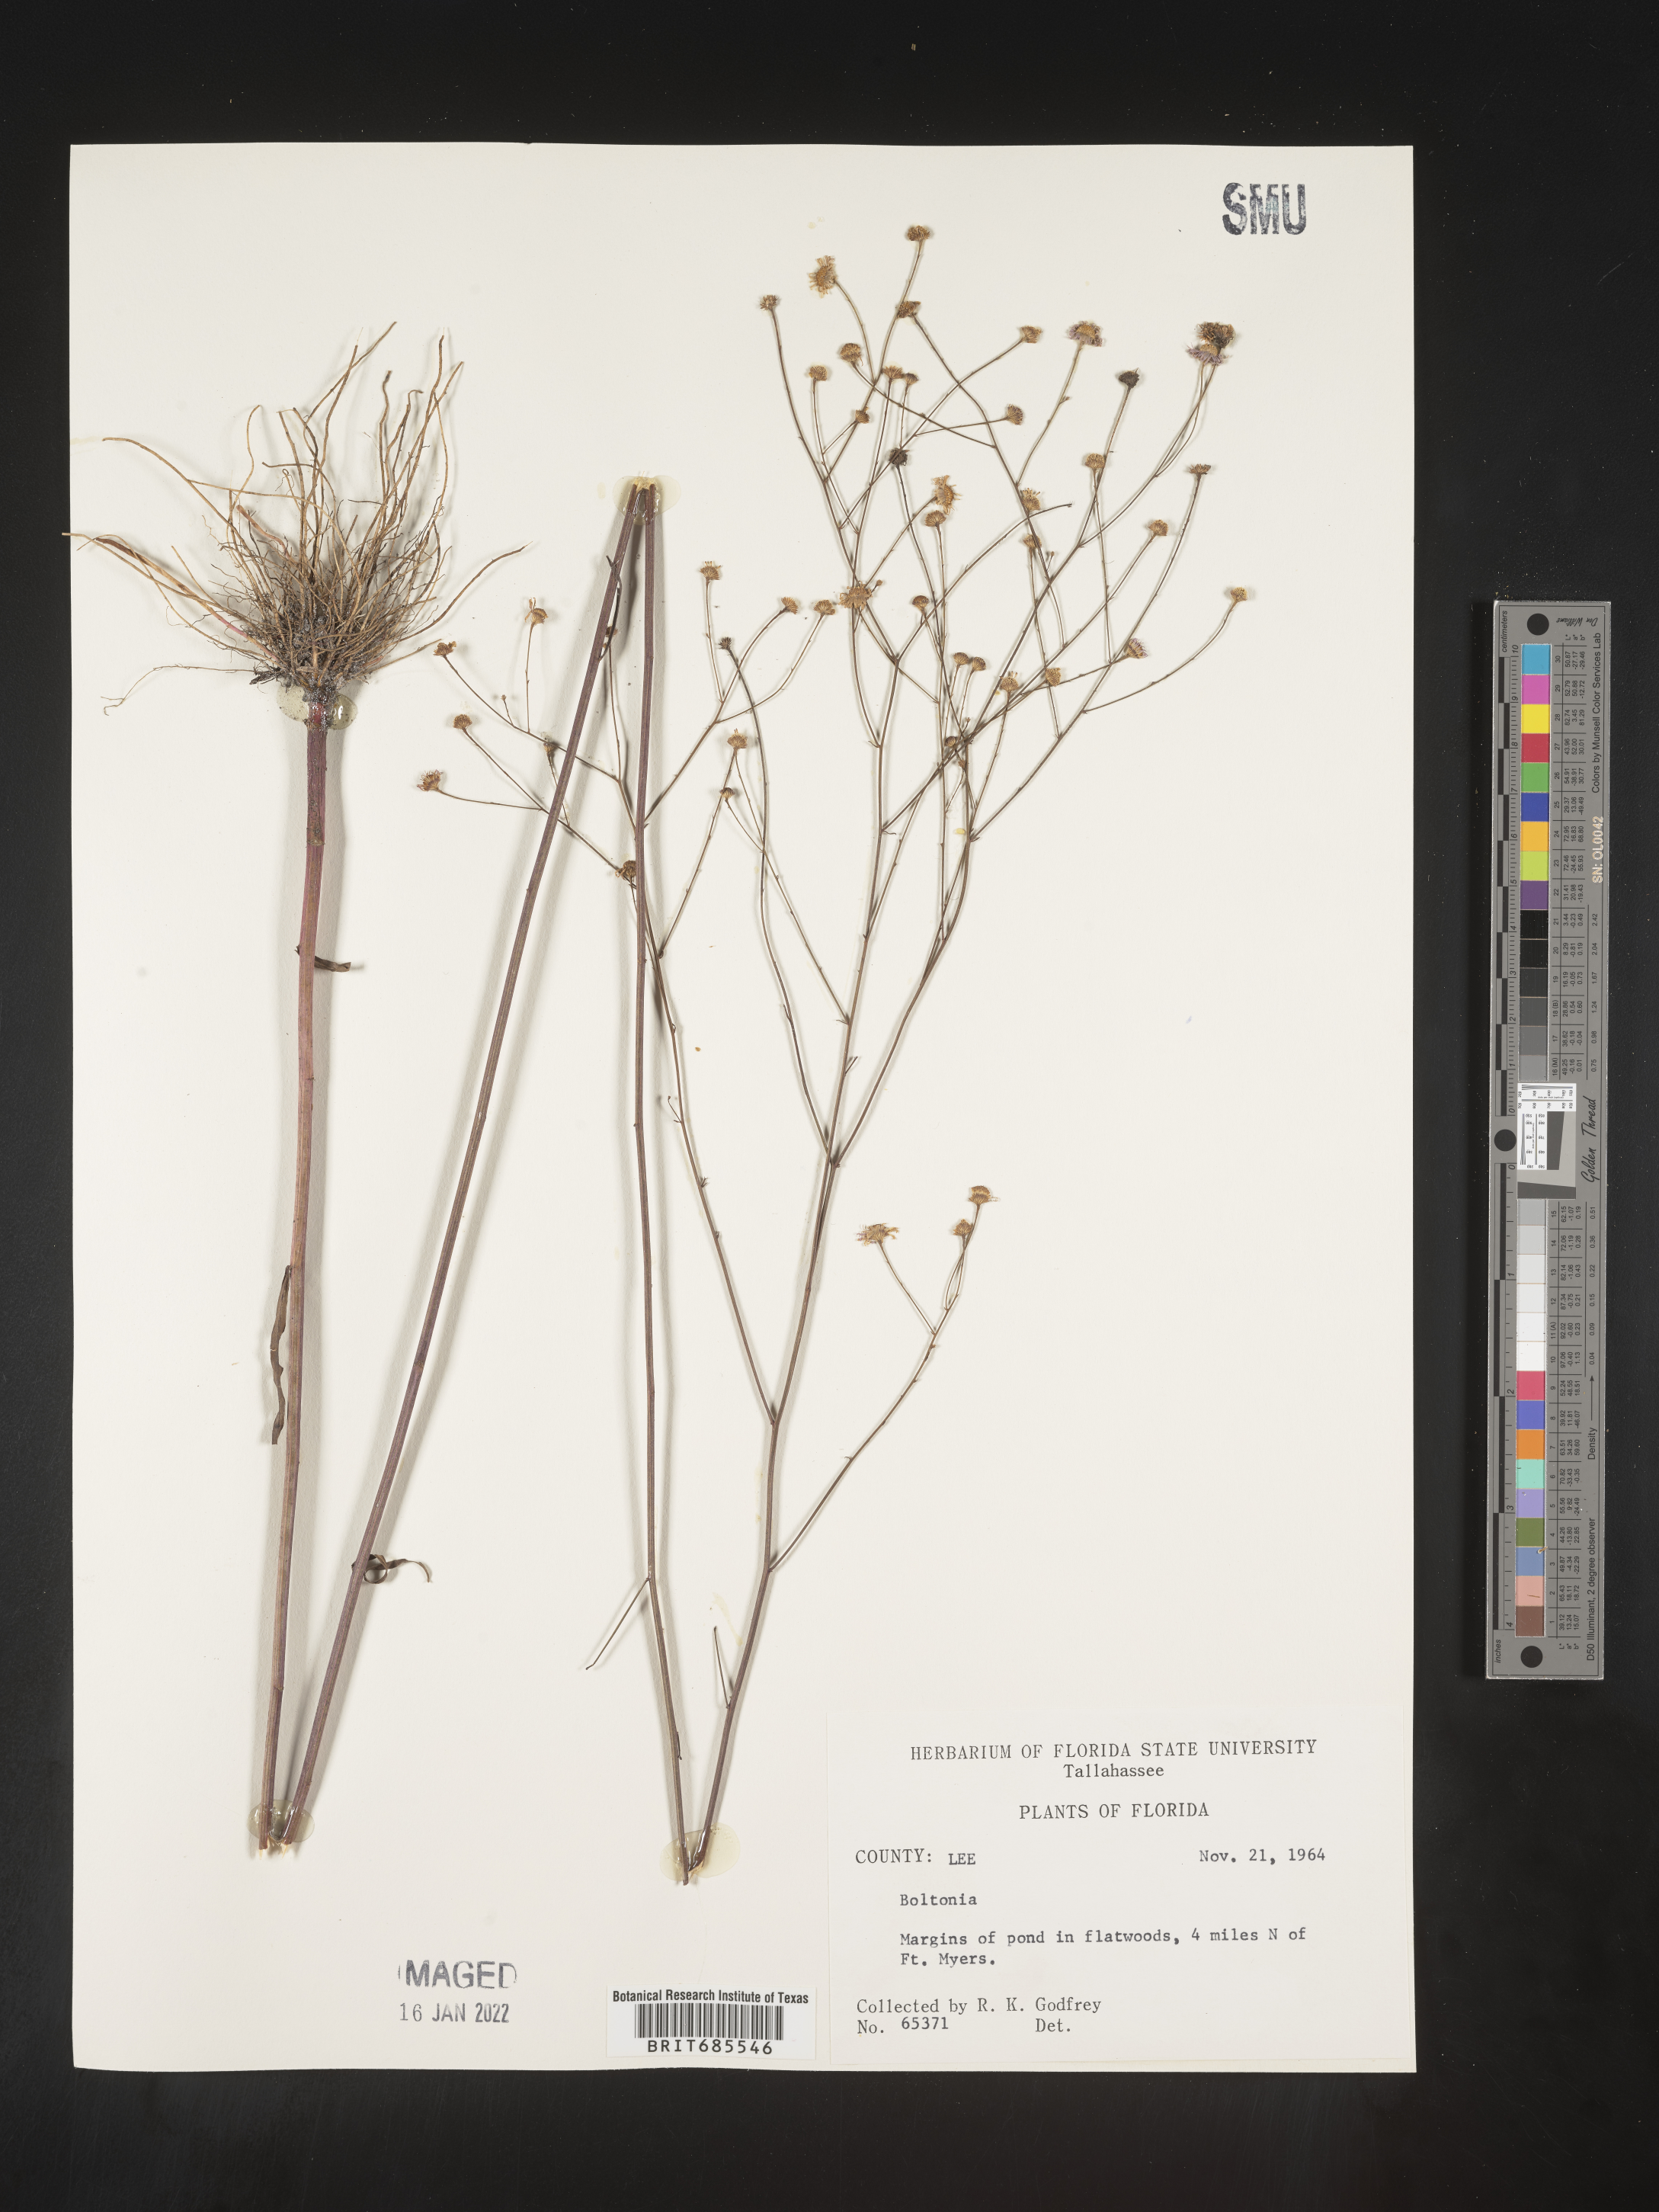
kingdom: Plantae
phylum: Tracheophyta
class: Magnoliopsida
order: Asterales
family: Asteraceae
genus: Boltonia
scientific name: Boltonia
